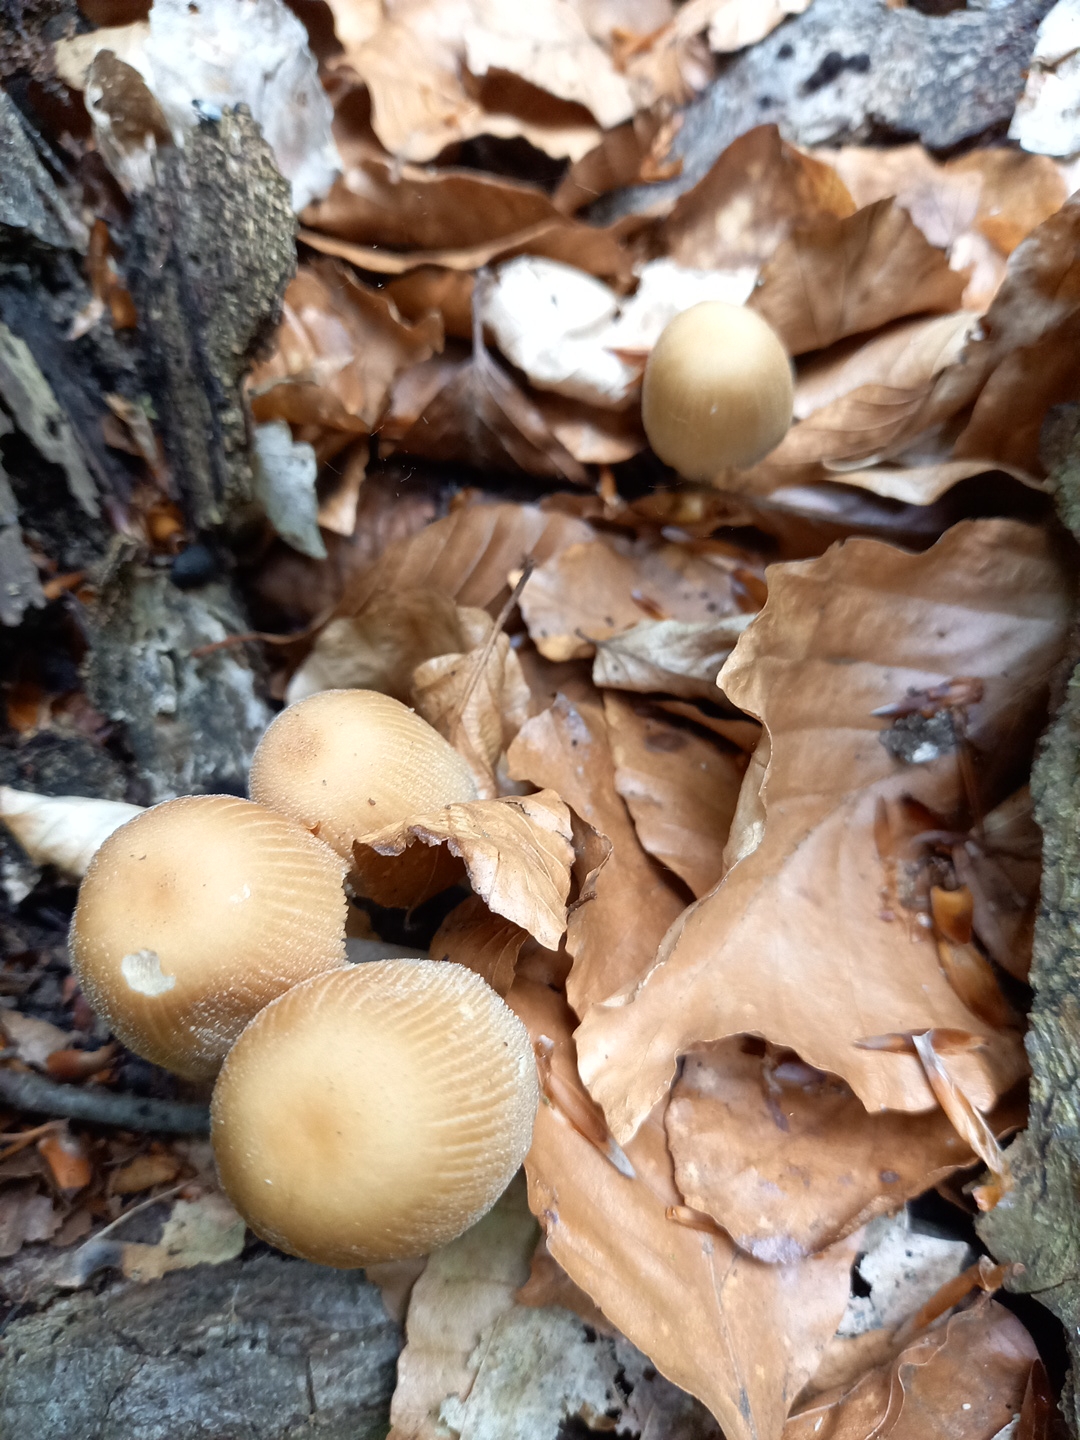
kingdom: Fungi
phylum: Basidiomycota
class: Agaricomycetes
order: Agaricales
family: Psathyrellaceae
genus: Coprinellus
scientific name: Coprinellus micaceus
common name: glimmer-blækhat
